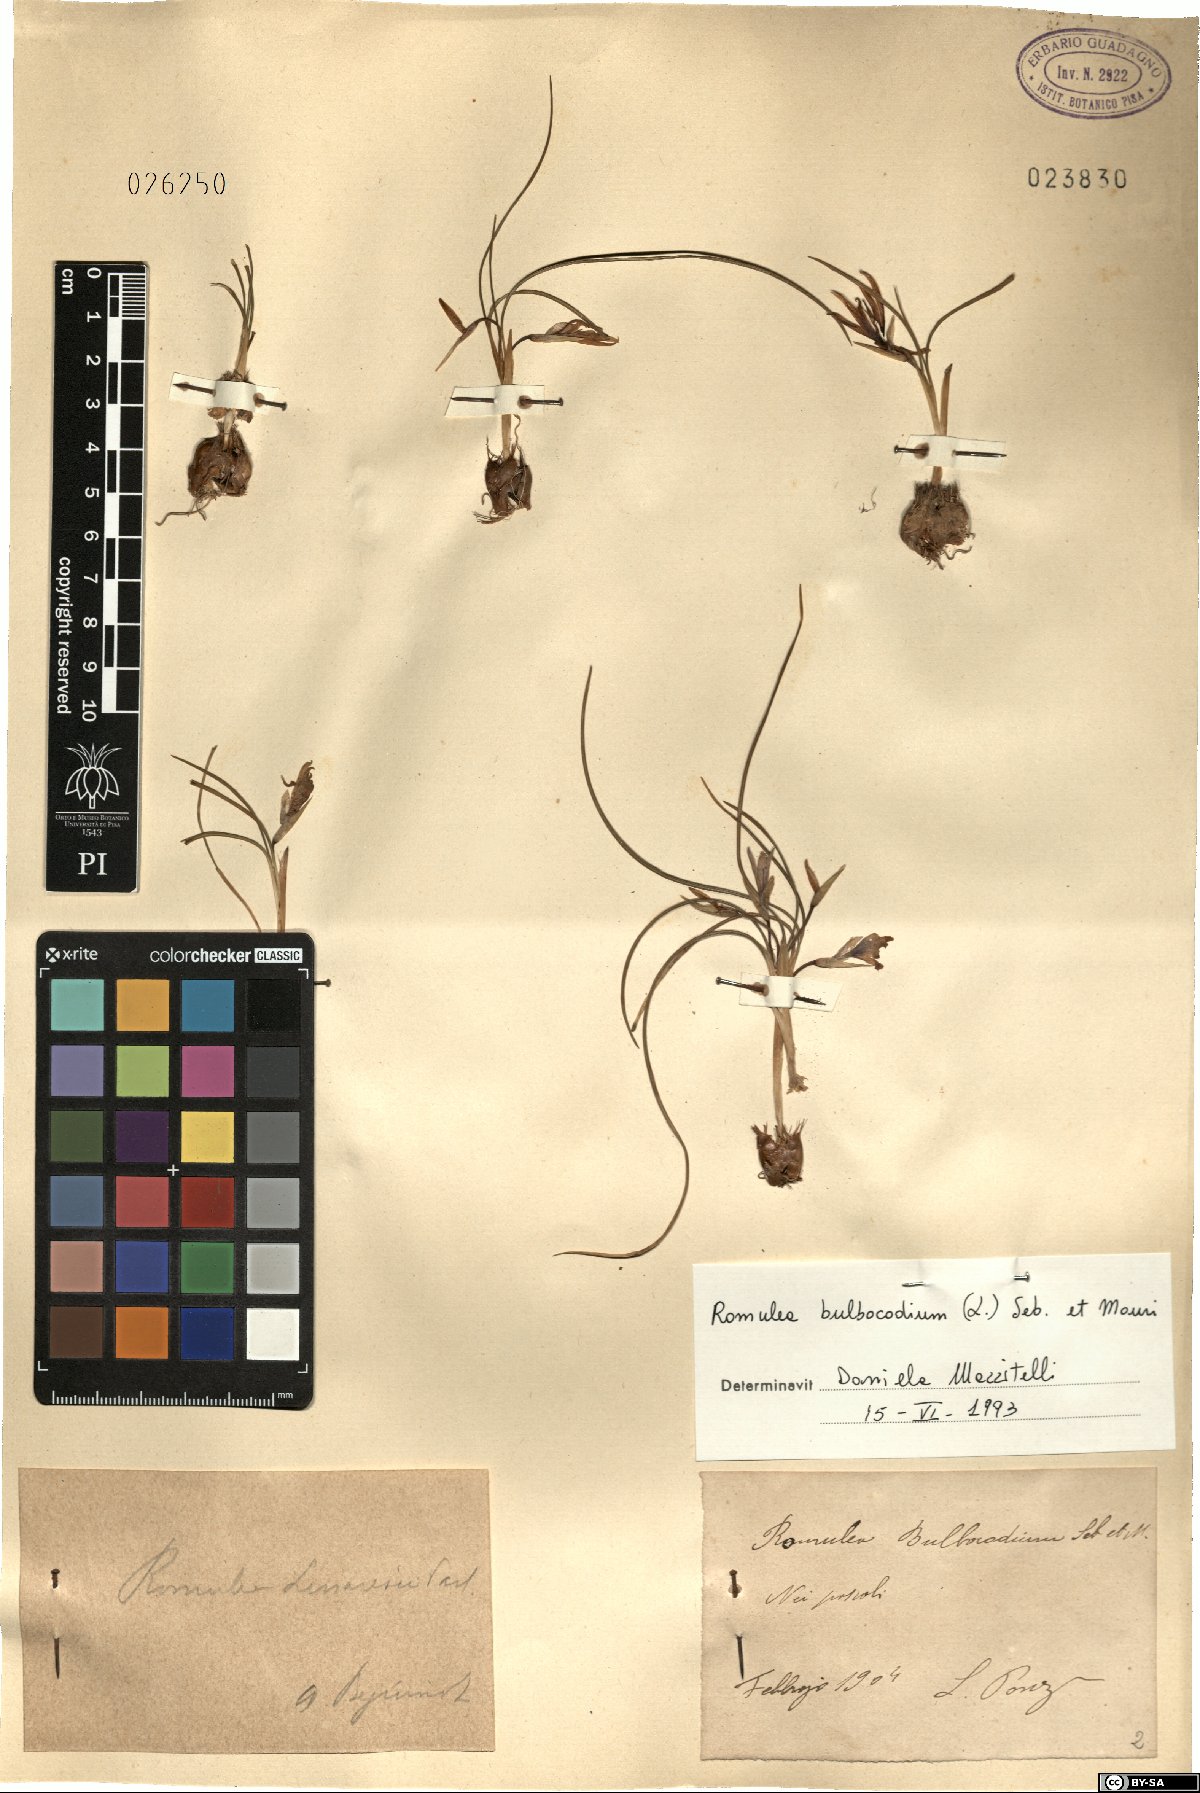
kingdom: Plantae
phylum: Tracheophyta
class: Liliopsida
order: Asparagales
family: Iridaceae
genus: Romulea
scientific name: Romulea bulbocodium
